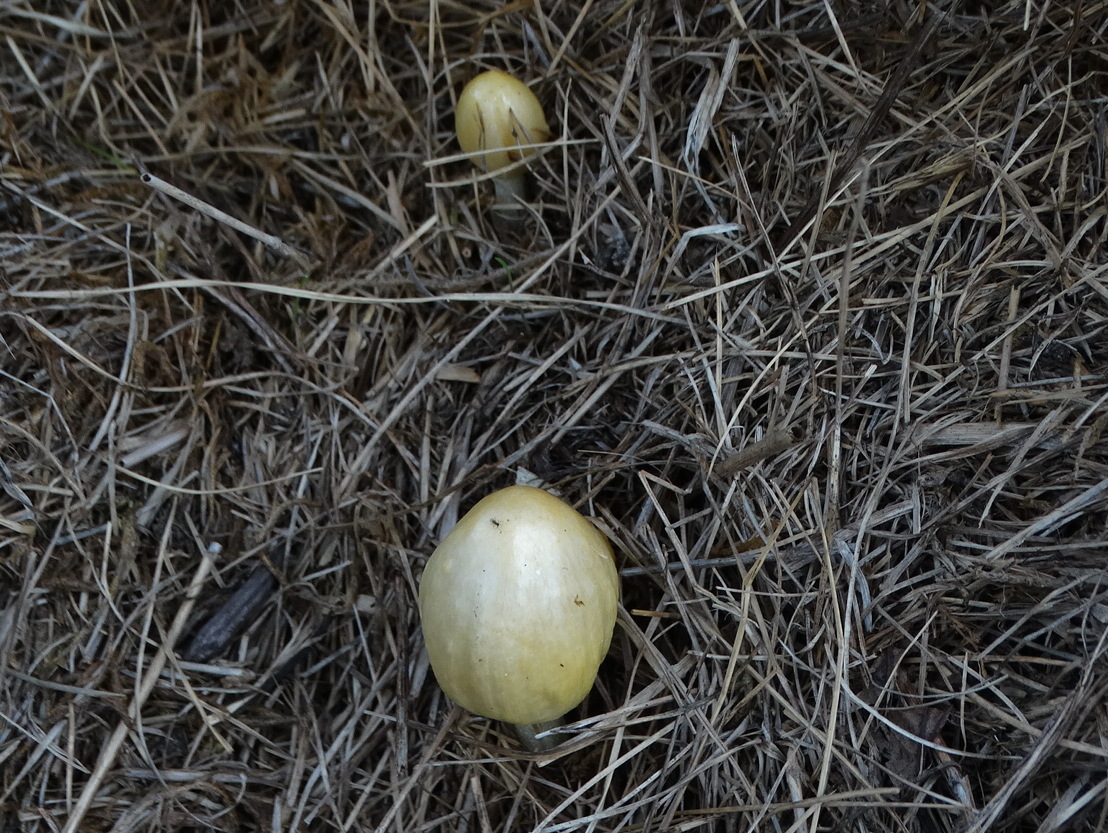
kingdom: Fungi
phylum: Basidiomycota
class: Agaricomycetes
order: Agaricales
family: Bolbitiaceae
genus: Bolbitius
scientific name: Bolbitius titubans
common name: almindelig gulhat
